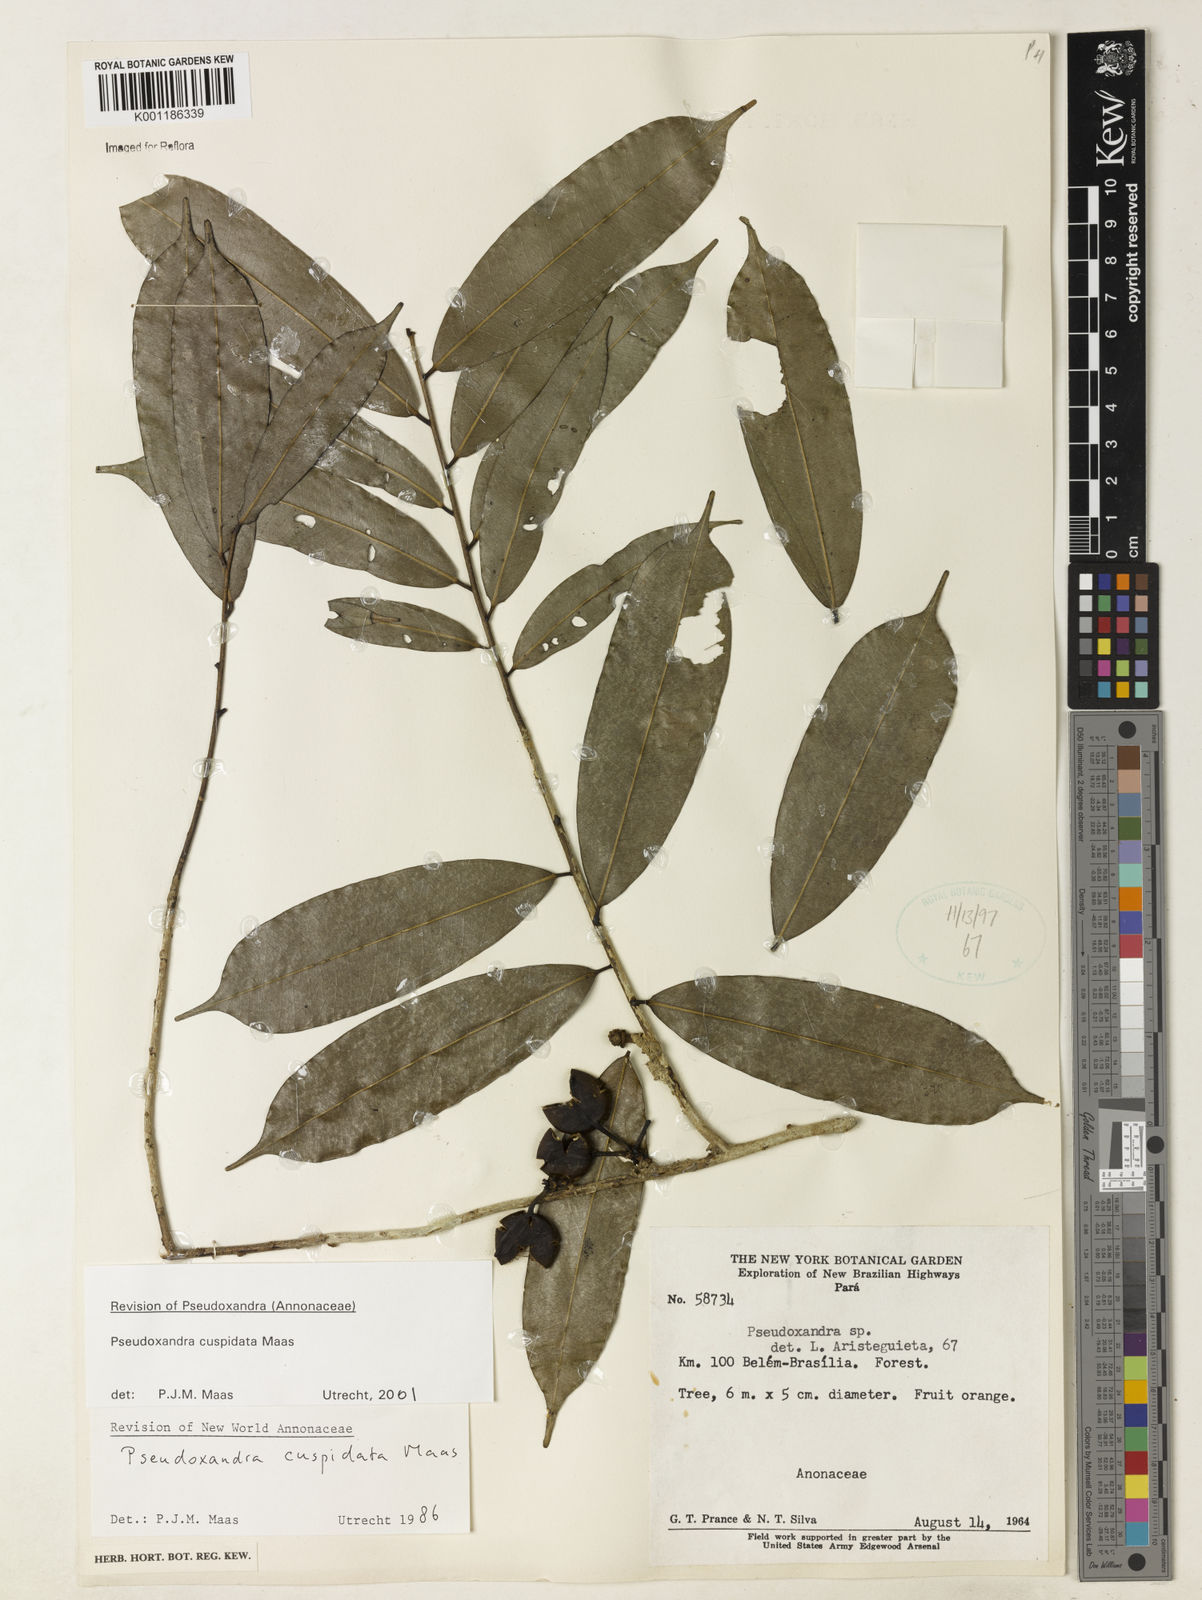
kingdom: Plantae
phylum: Tracheophyta
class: Magnoliopsida
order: Magnoliales
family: Annonaceae
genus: Pseudoxandra
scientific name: Pseudoxandra cuspidata
